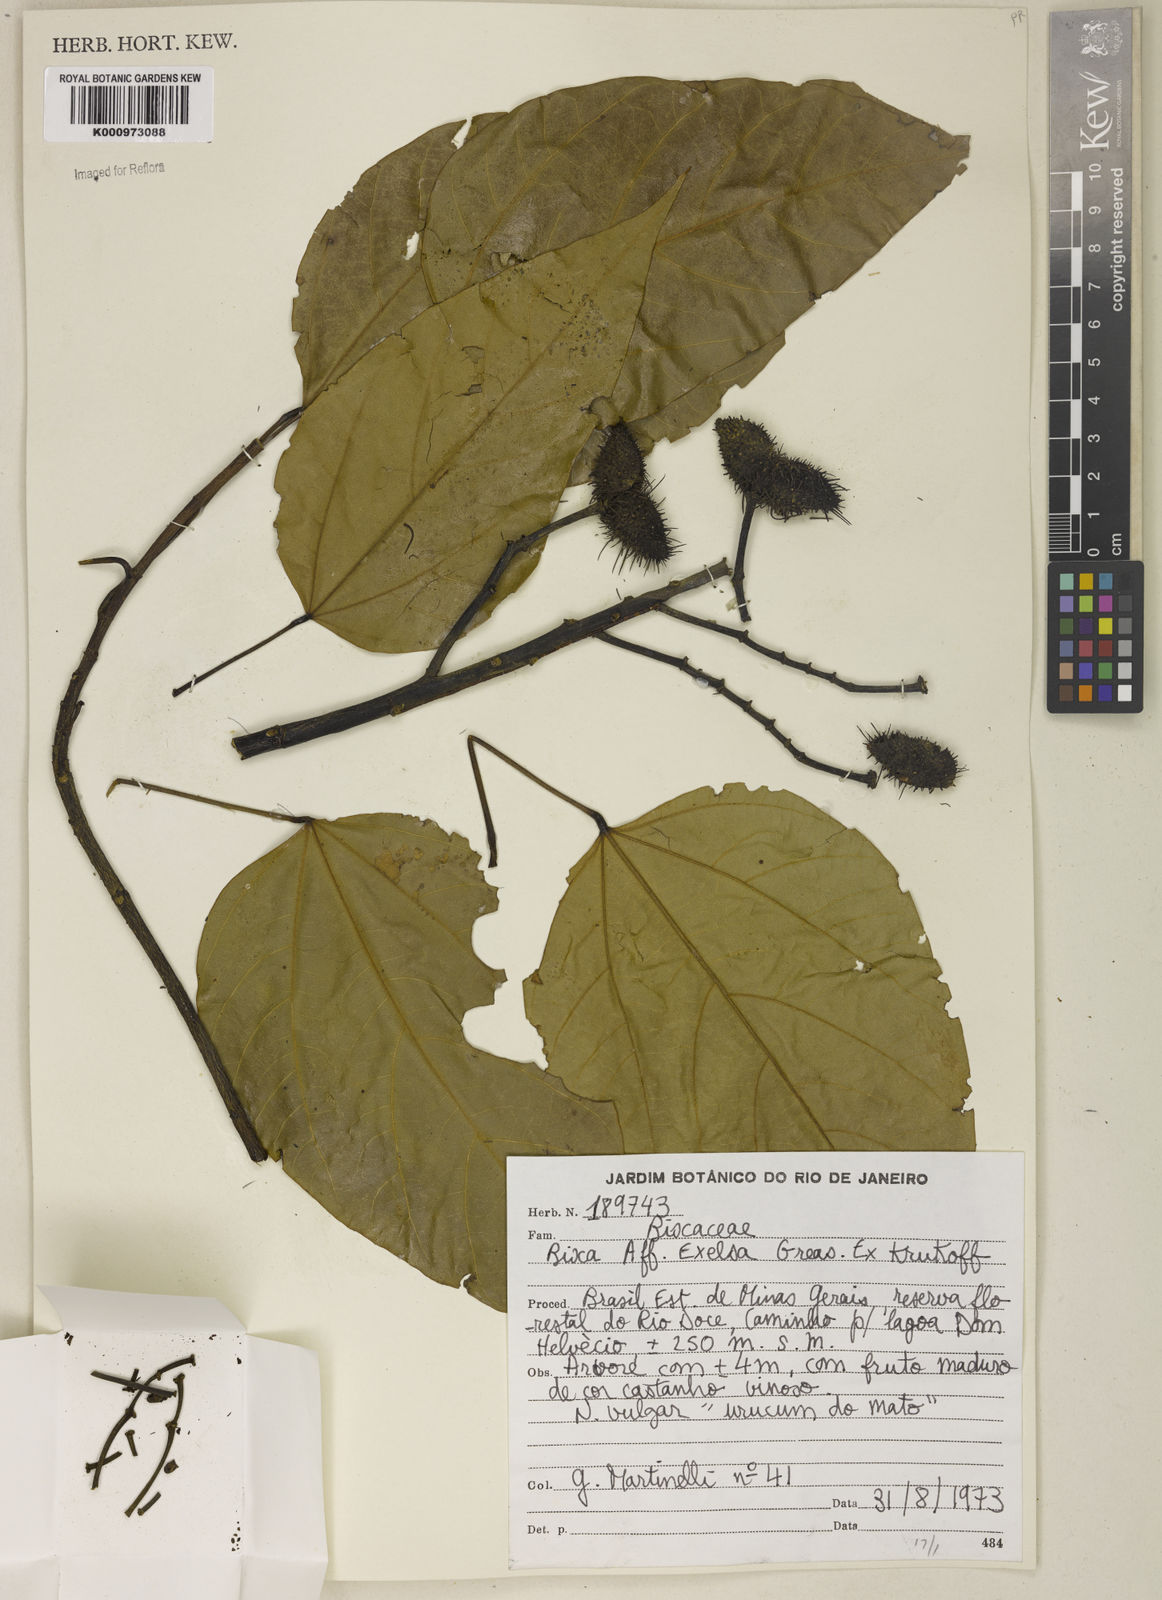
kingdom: Plantae
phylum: Tracheophyta
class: Magnoliopsida
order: Malvales
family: Bixaceae
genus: Bixa
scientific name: Bixa excelsa
